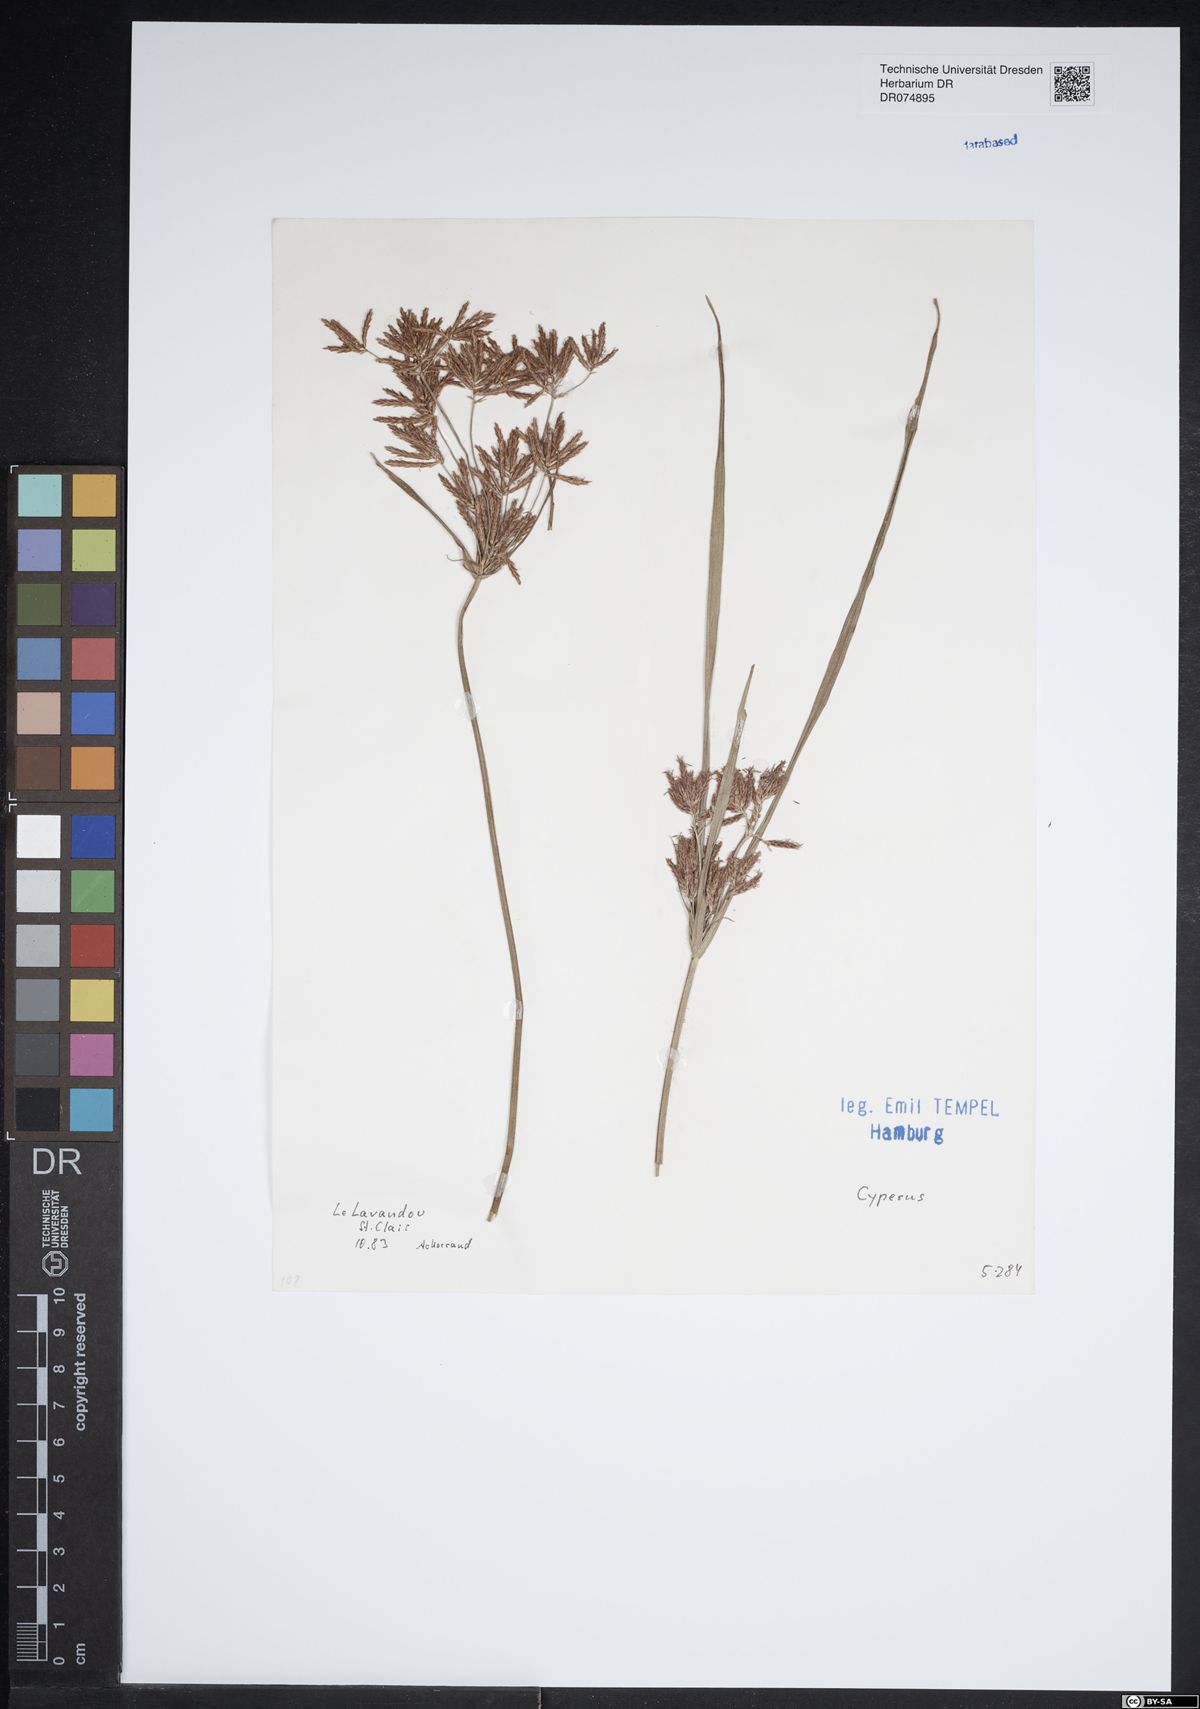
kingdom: Plantae
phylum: Tracheophyta
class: Liliopsida
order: Poales
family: Cyperaceae
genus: Cyperus
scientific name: Cyperus
